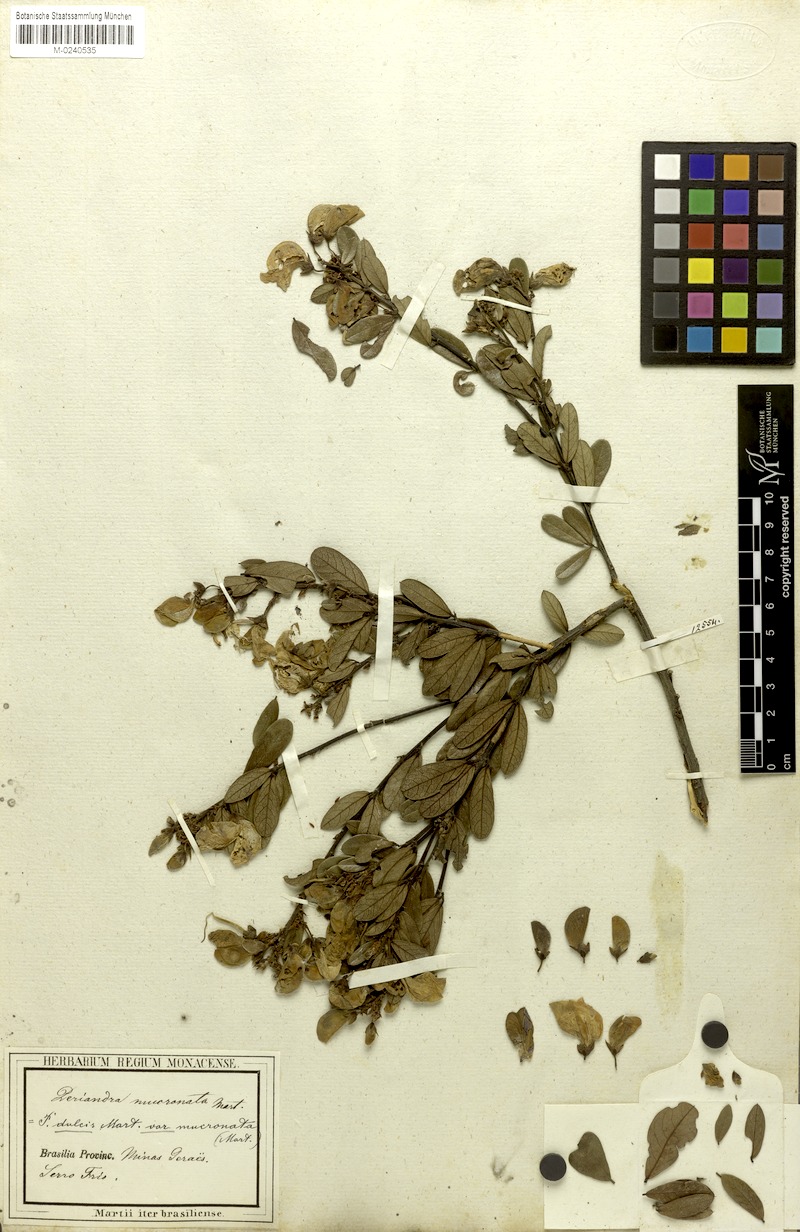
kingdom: Plantae
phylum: Tracheophyta
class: Magnoliopsida
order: Fabales
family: Fabaceae
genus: Periandra
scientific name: Periandra mediterranea
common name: Brazilian licorice
